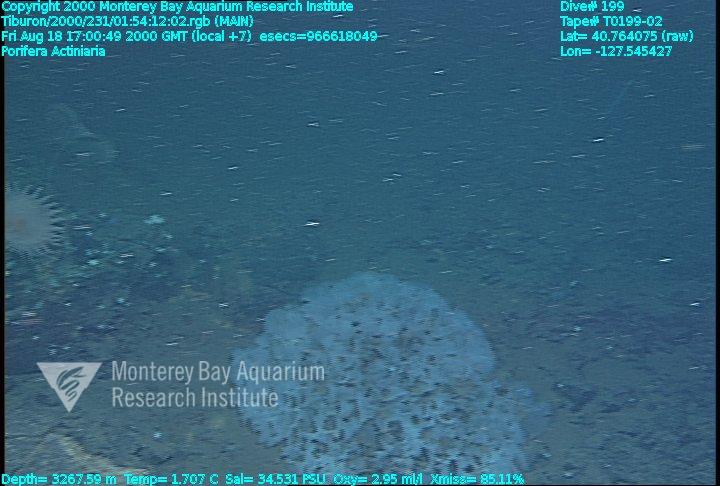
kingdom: Animalia
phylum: Porifera
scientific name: Porifera
